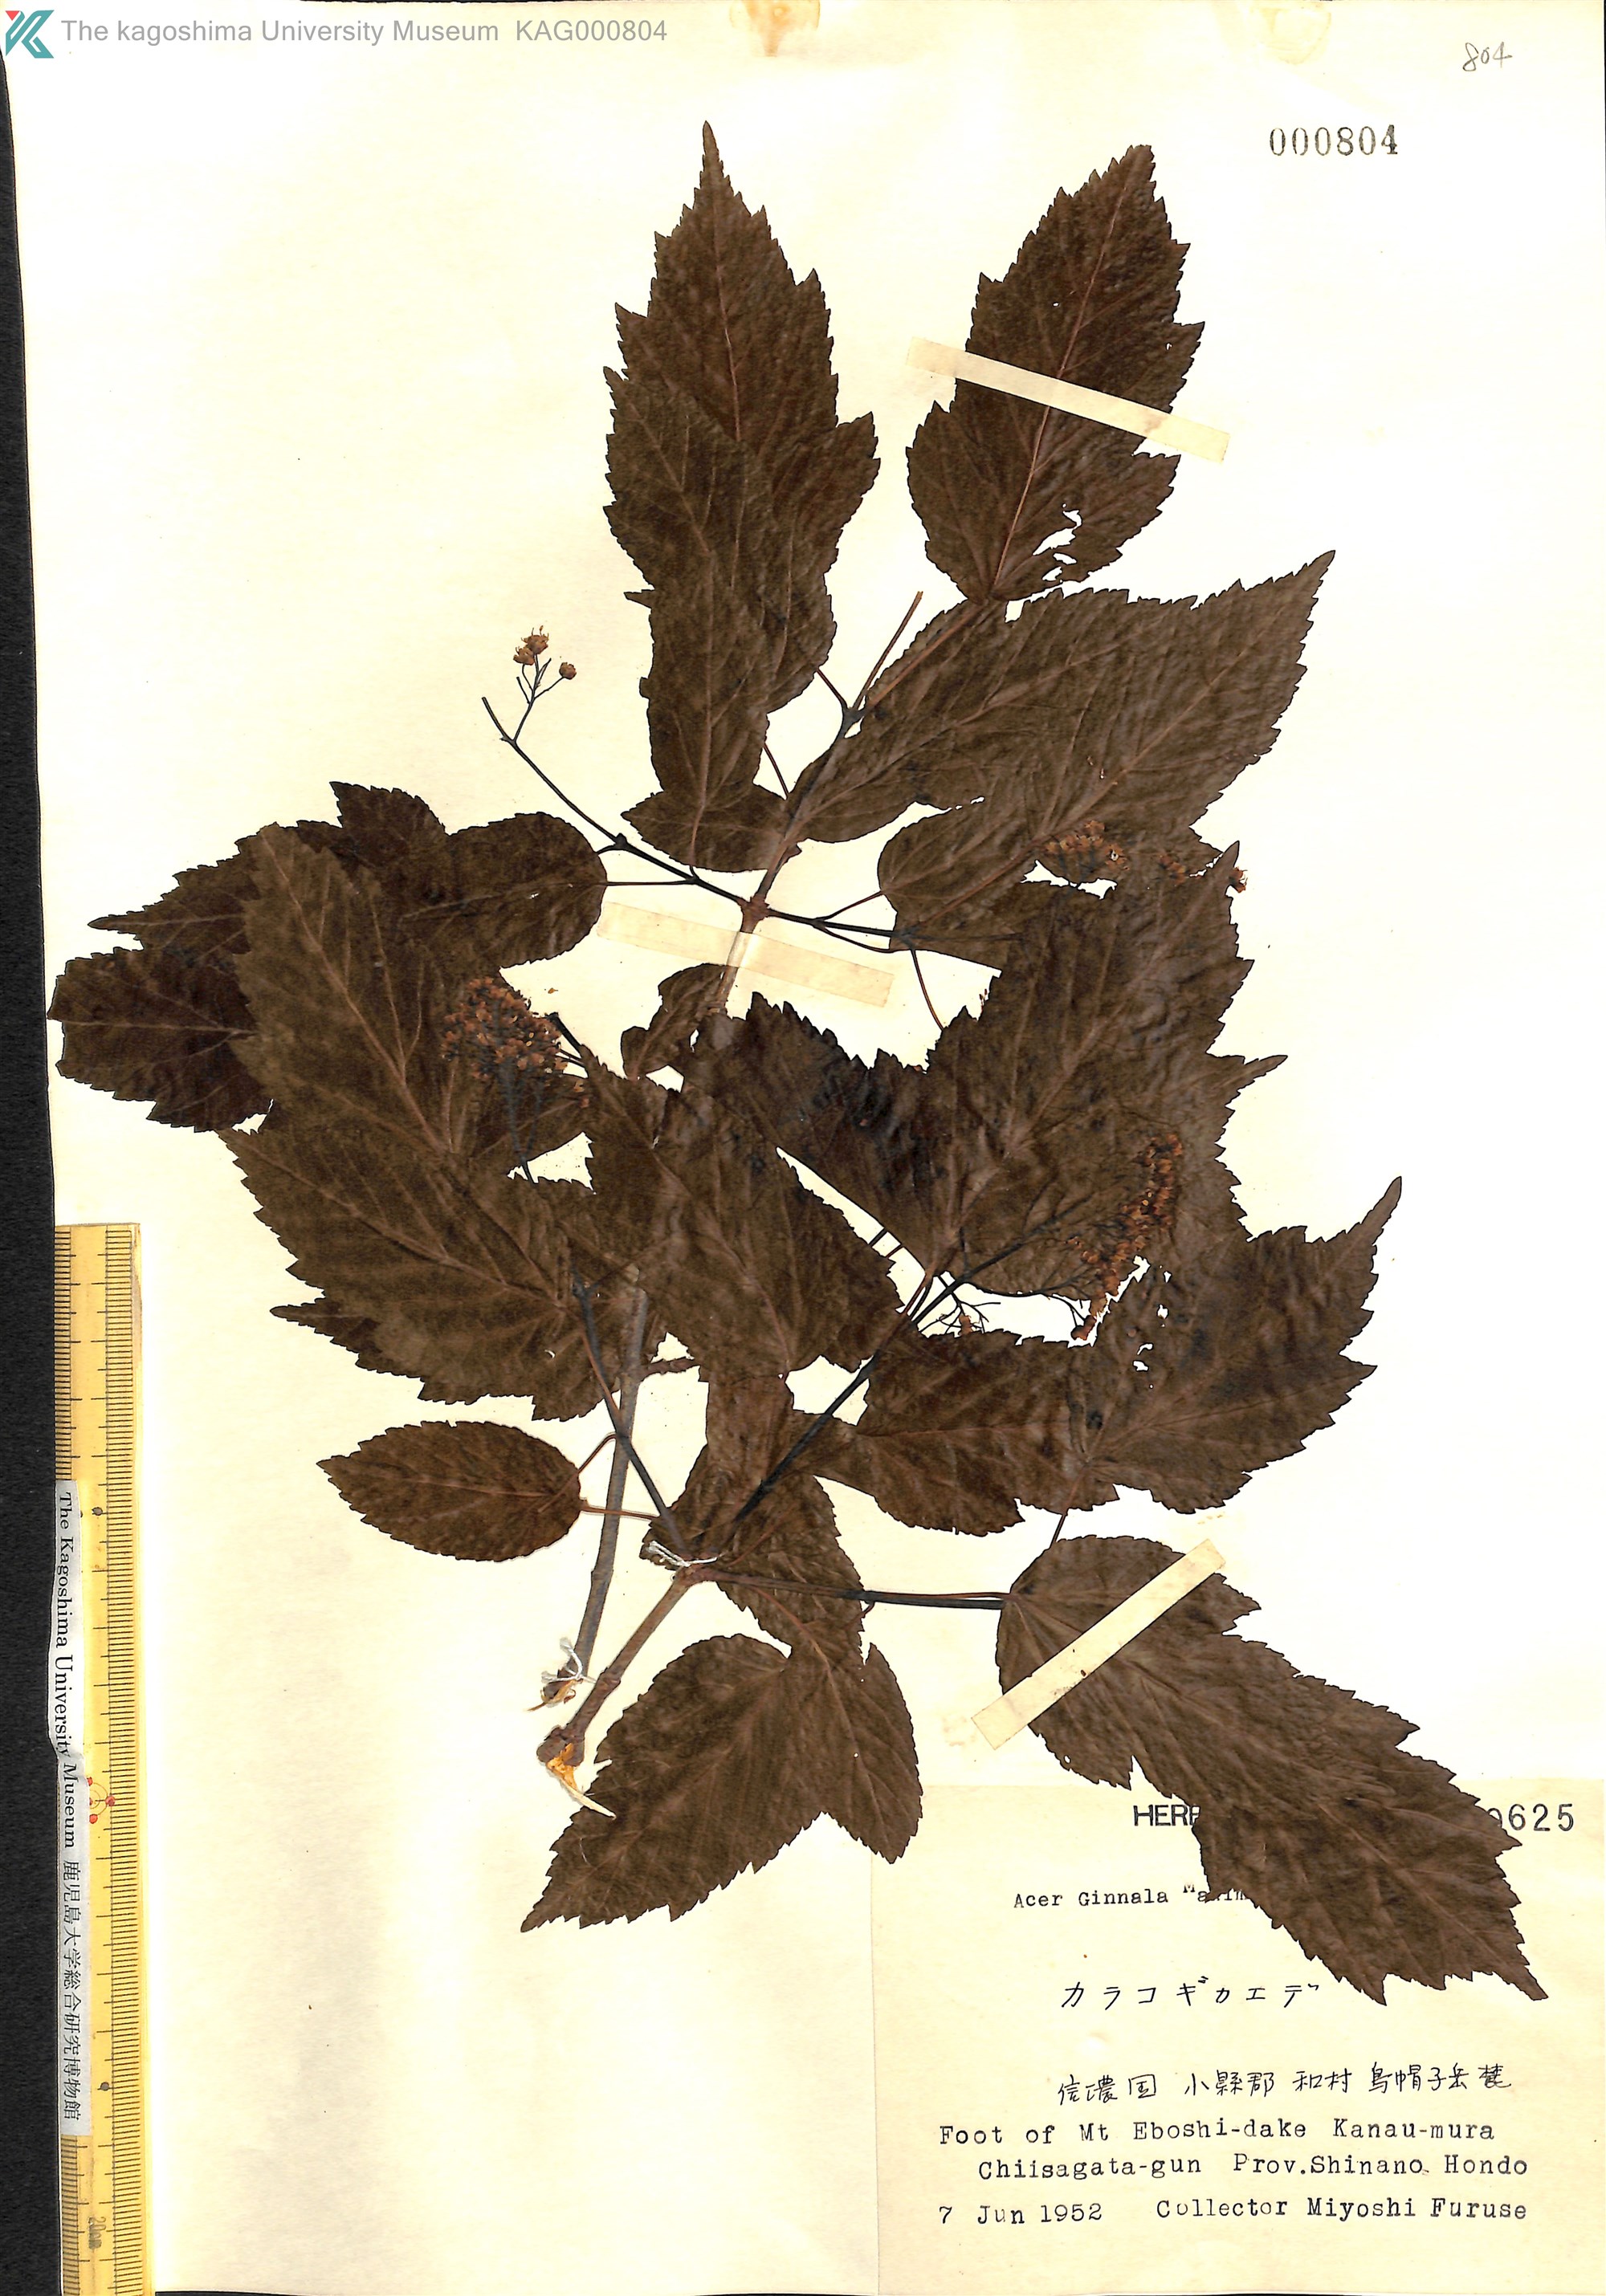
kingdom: Plantae
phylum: Tracheophyta
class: Magnoliopsida
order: Sapindales
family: Sapindaceae
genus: Acer
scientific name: Acer tataricum
